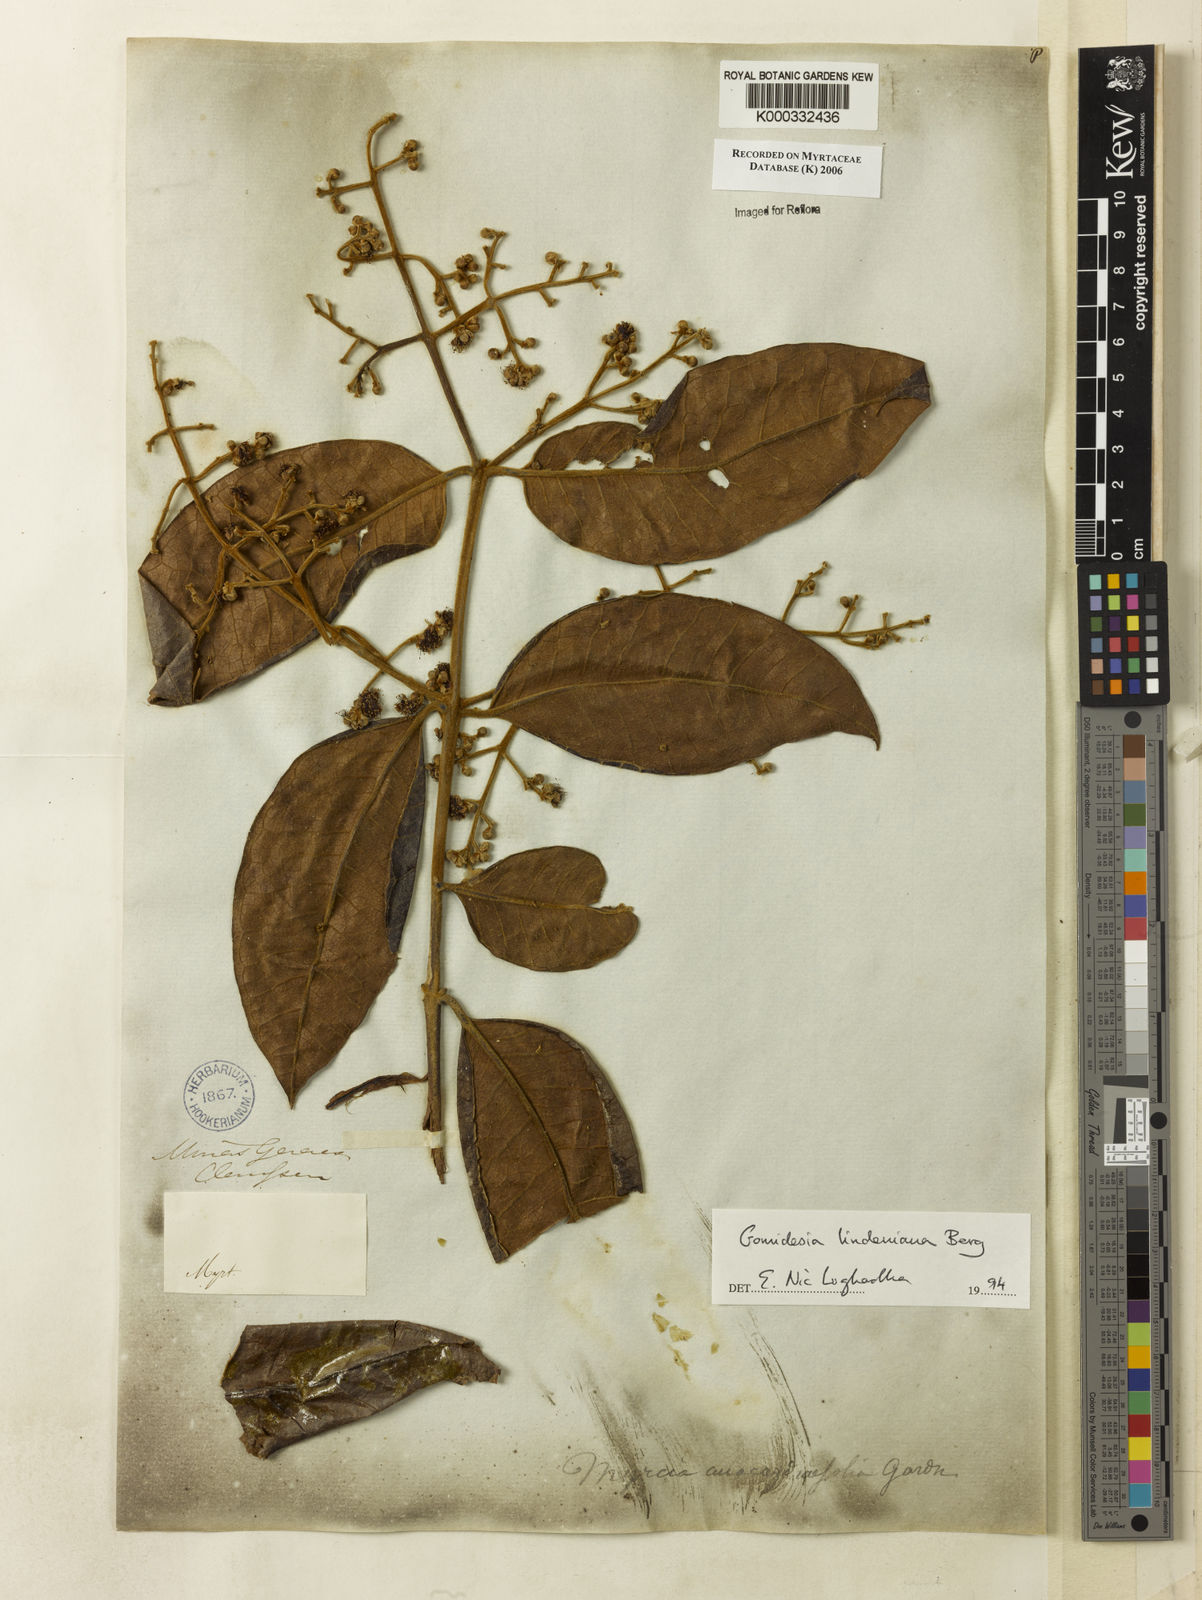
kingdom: Plantae
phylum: Tracheophyta
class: Magnoliopsida
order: Myrtales
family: Myrtaceae
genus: Myrcia
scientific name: Myrcia fenzliana
